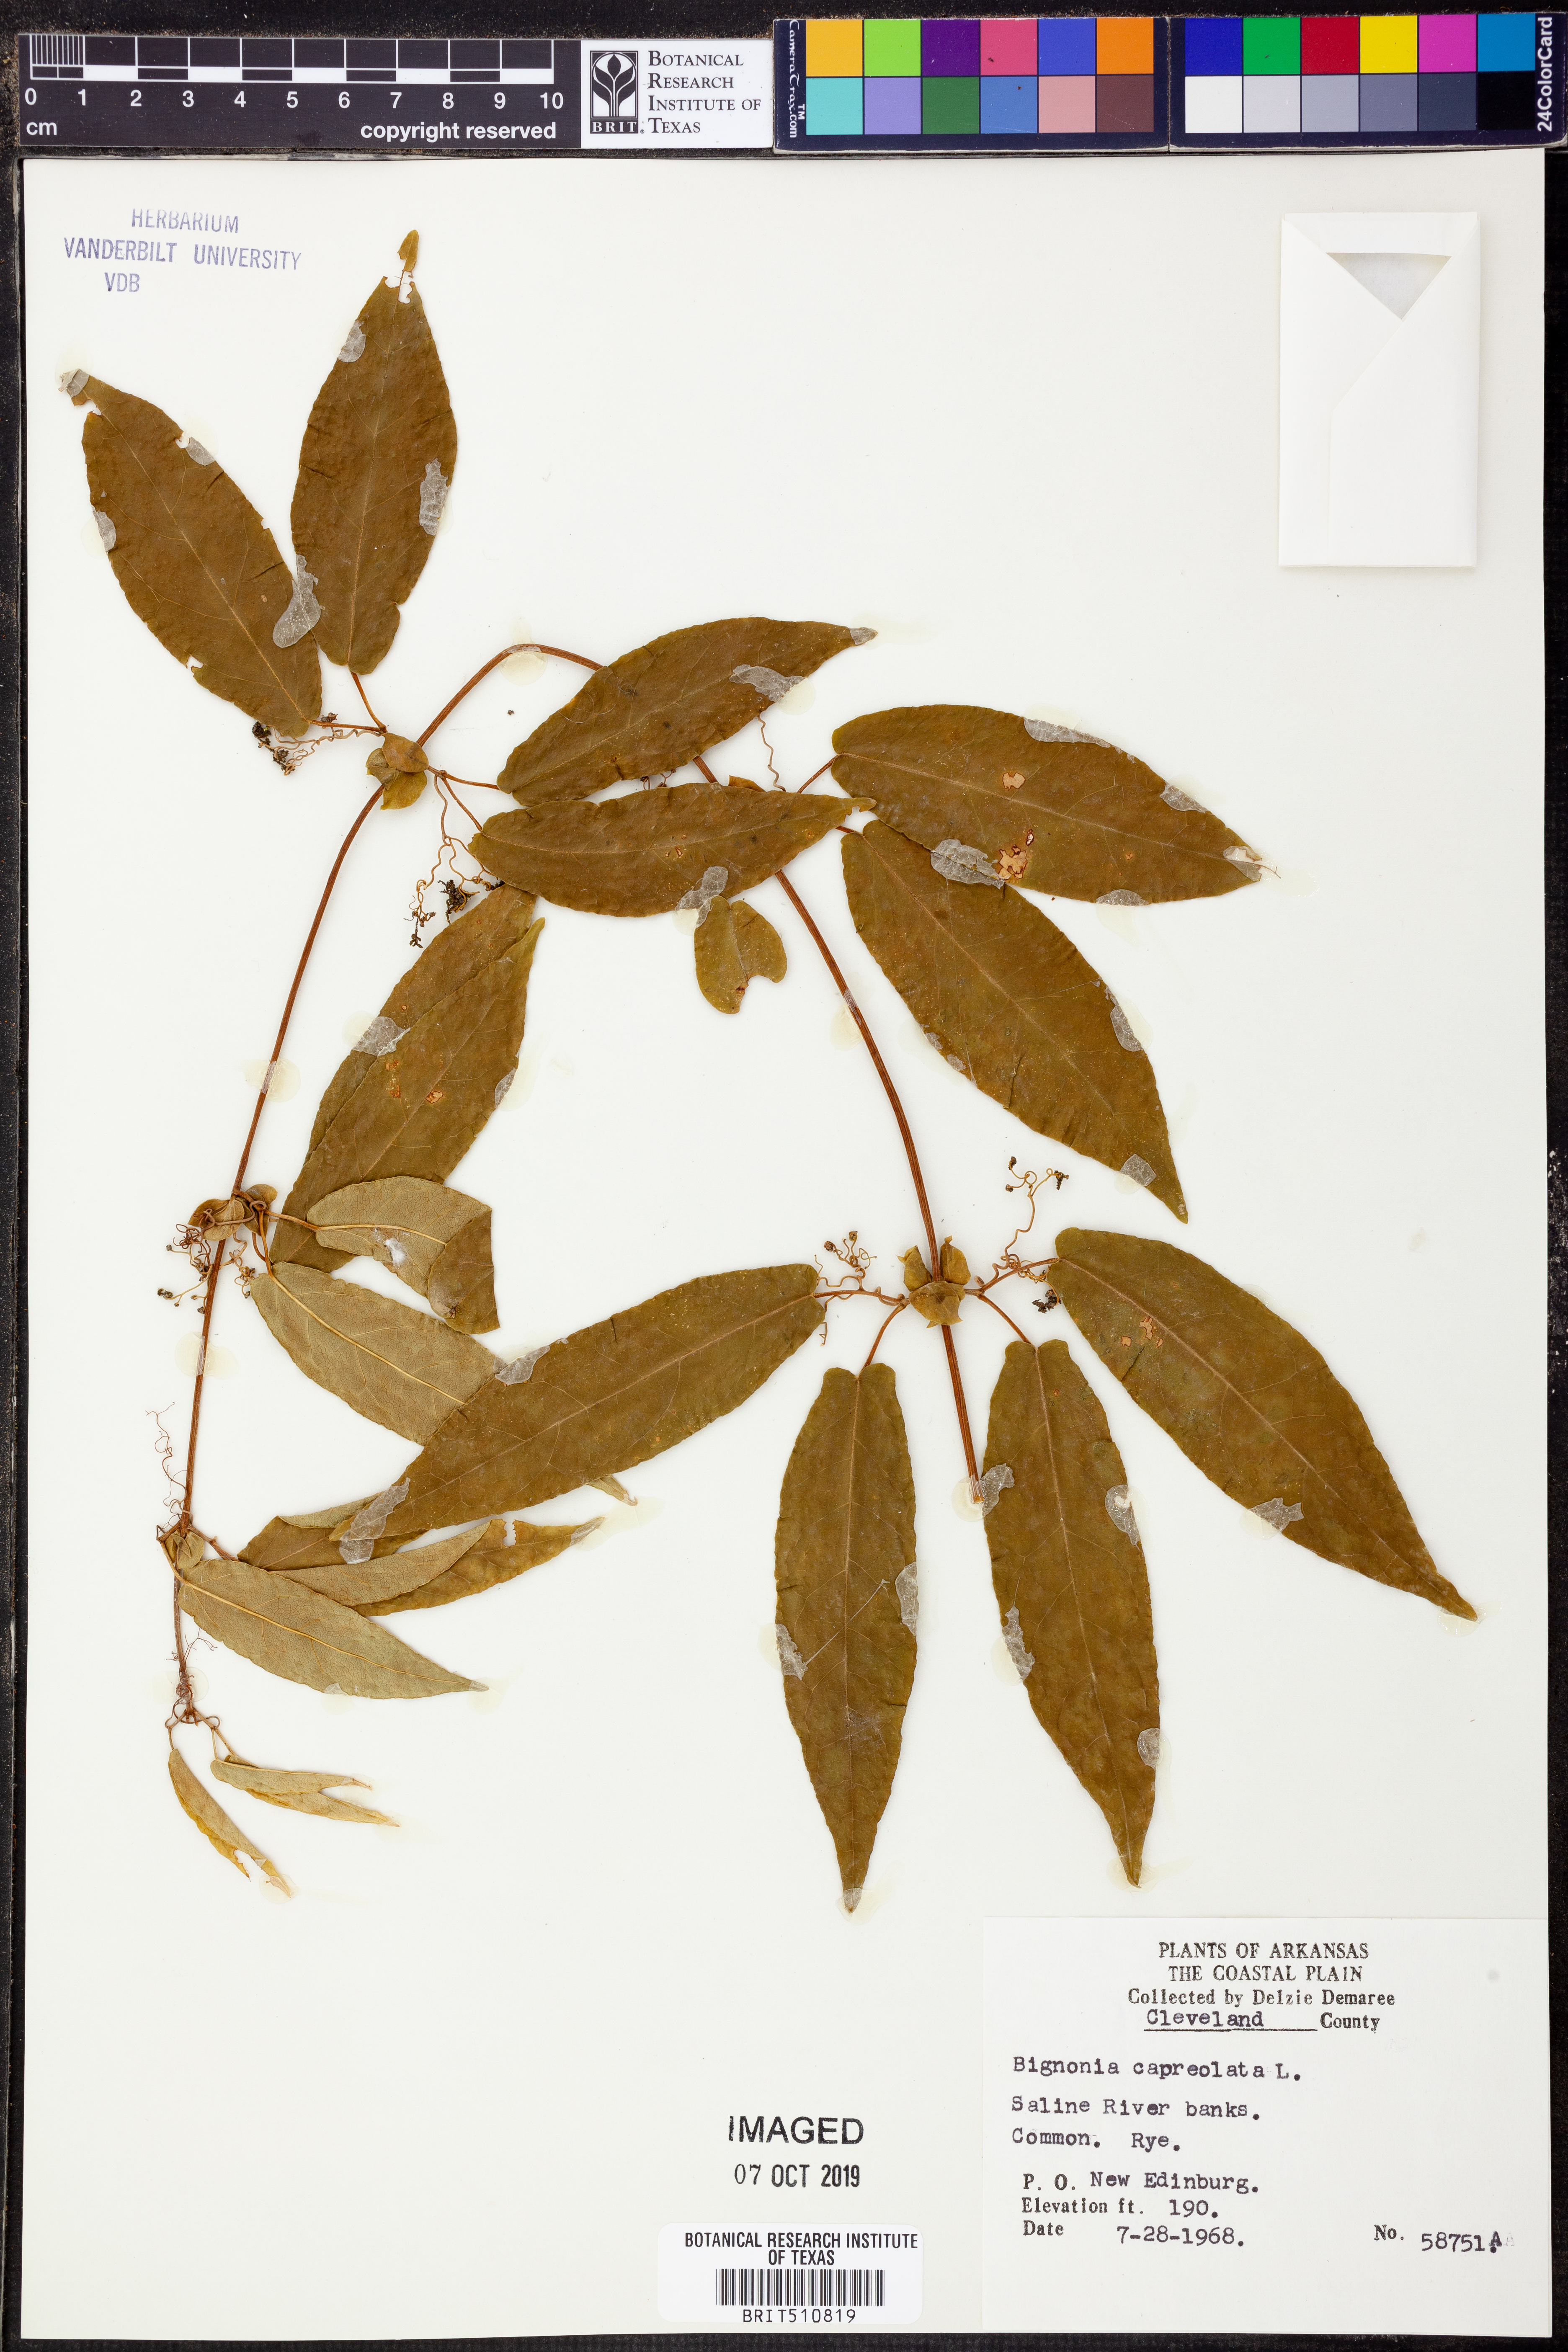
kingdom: Plantae
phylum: Tracheophyta
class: Magnoliopsida
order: Lamiales
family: Bignoniaceae
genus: Bignonia
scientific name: Bignonia capreolata
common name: Crossvine
